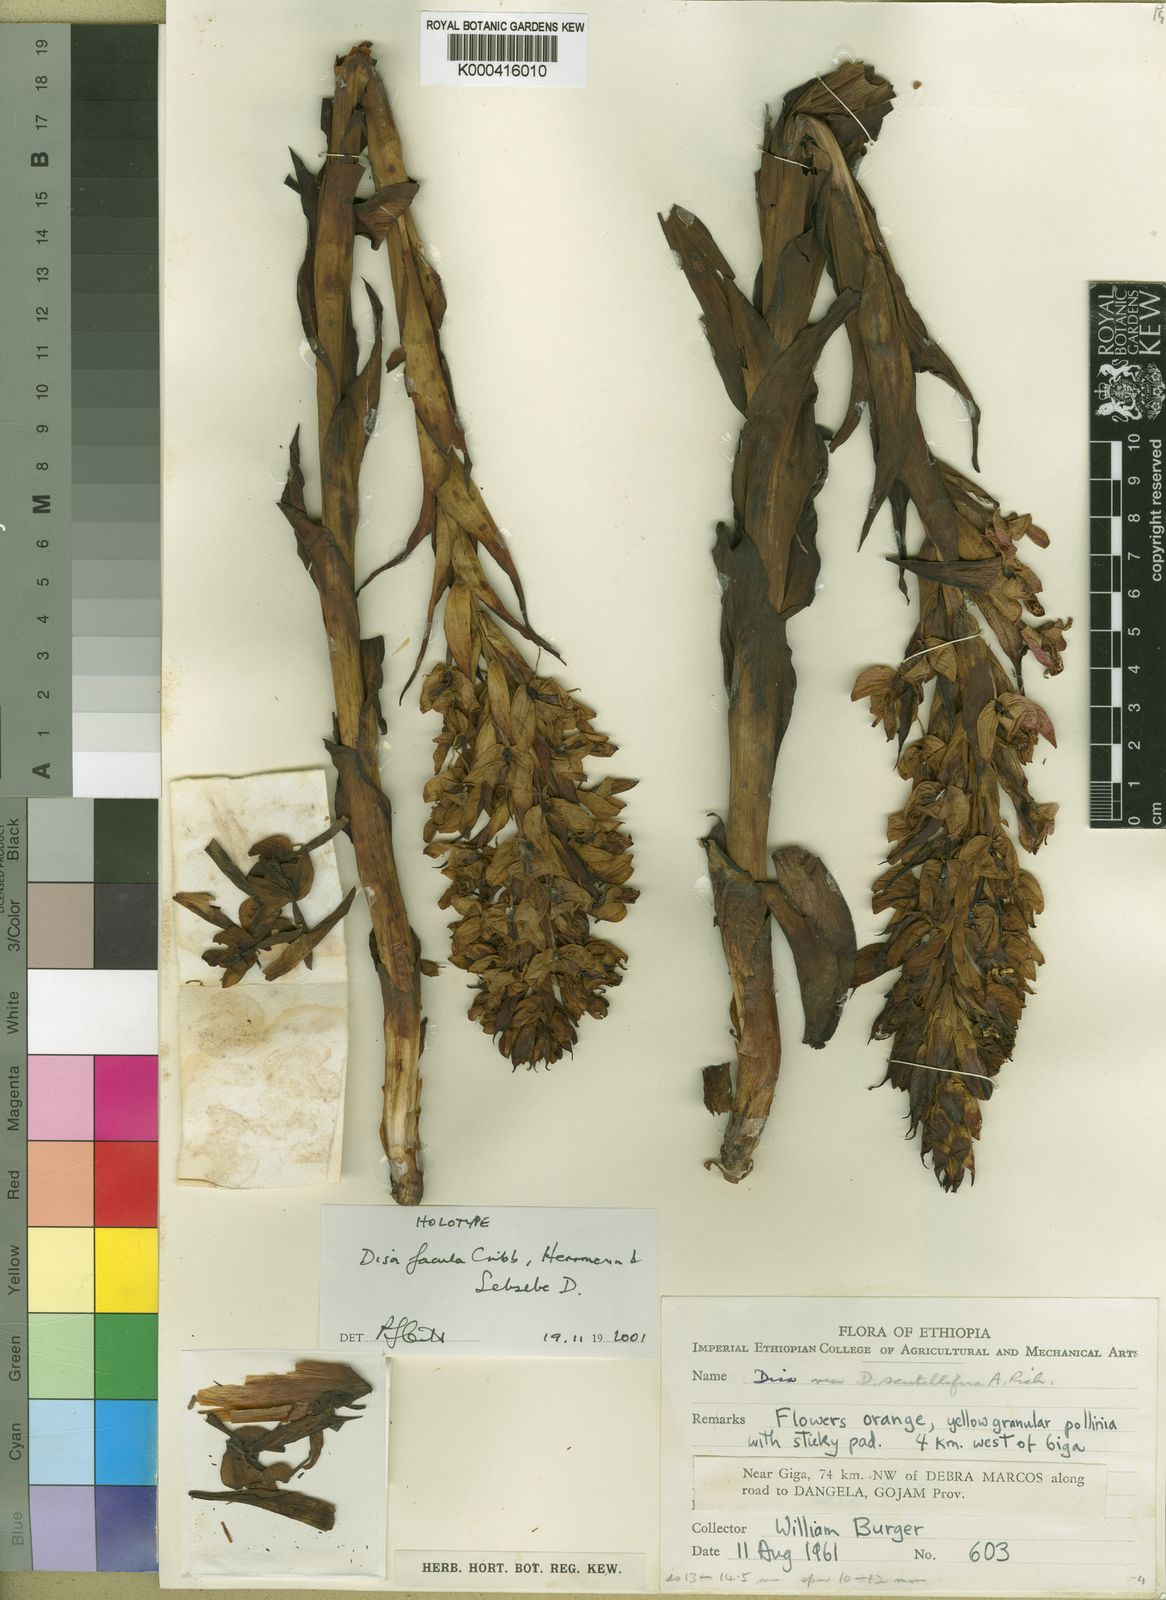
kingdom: Plantae
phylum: Tracheophyta
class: Liliopsida
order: Asparagales
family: Orchidaceae
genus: Disa
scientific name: Disa
